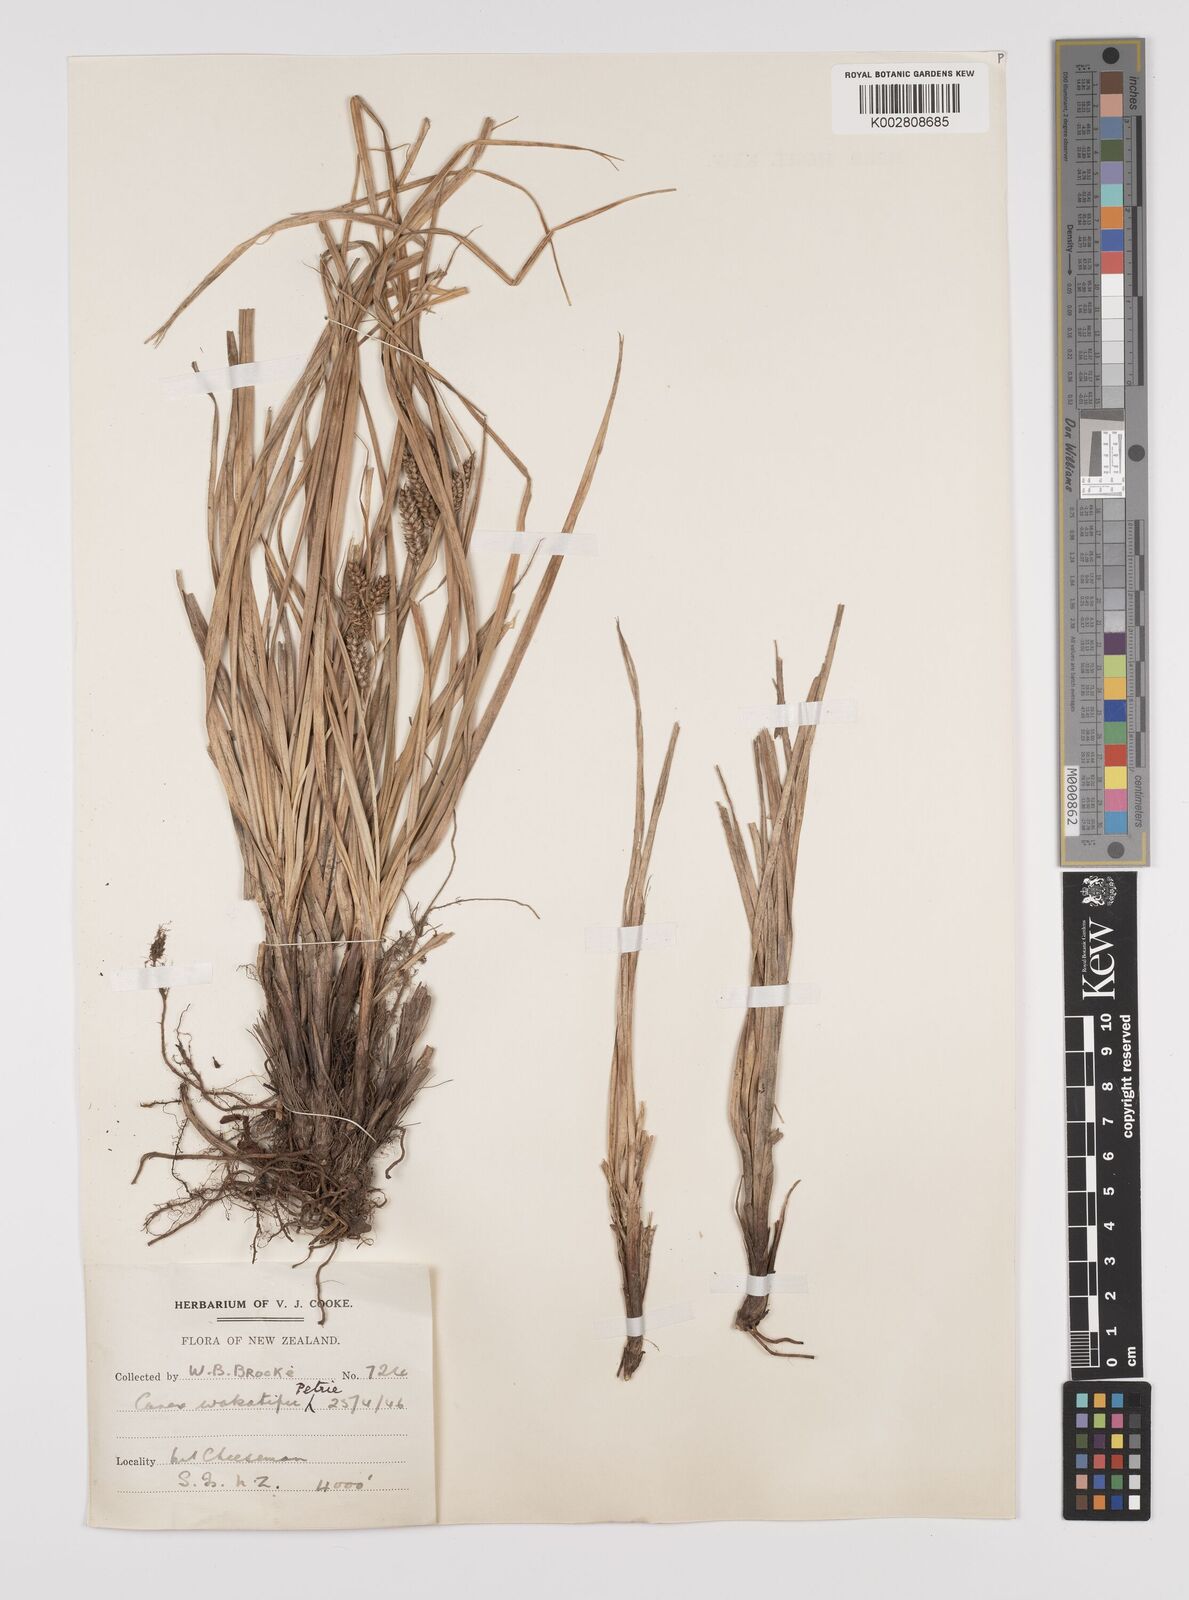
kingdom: Plantae
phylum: Tracheophyta
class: Liliopsida
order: Poales
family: Cyperaceae
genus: Carex
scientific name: Carex wakatipu
